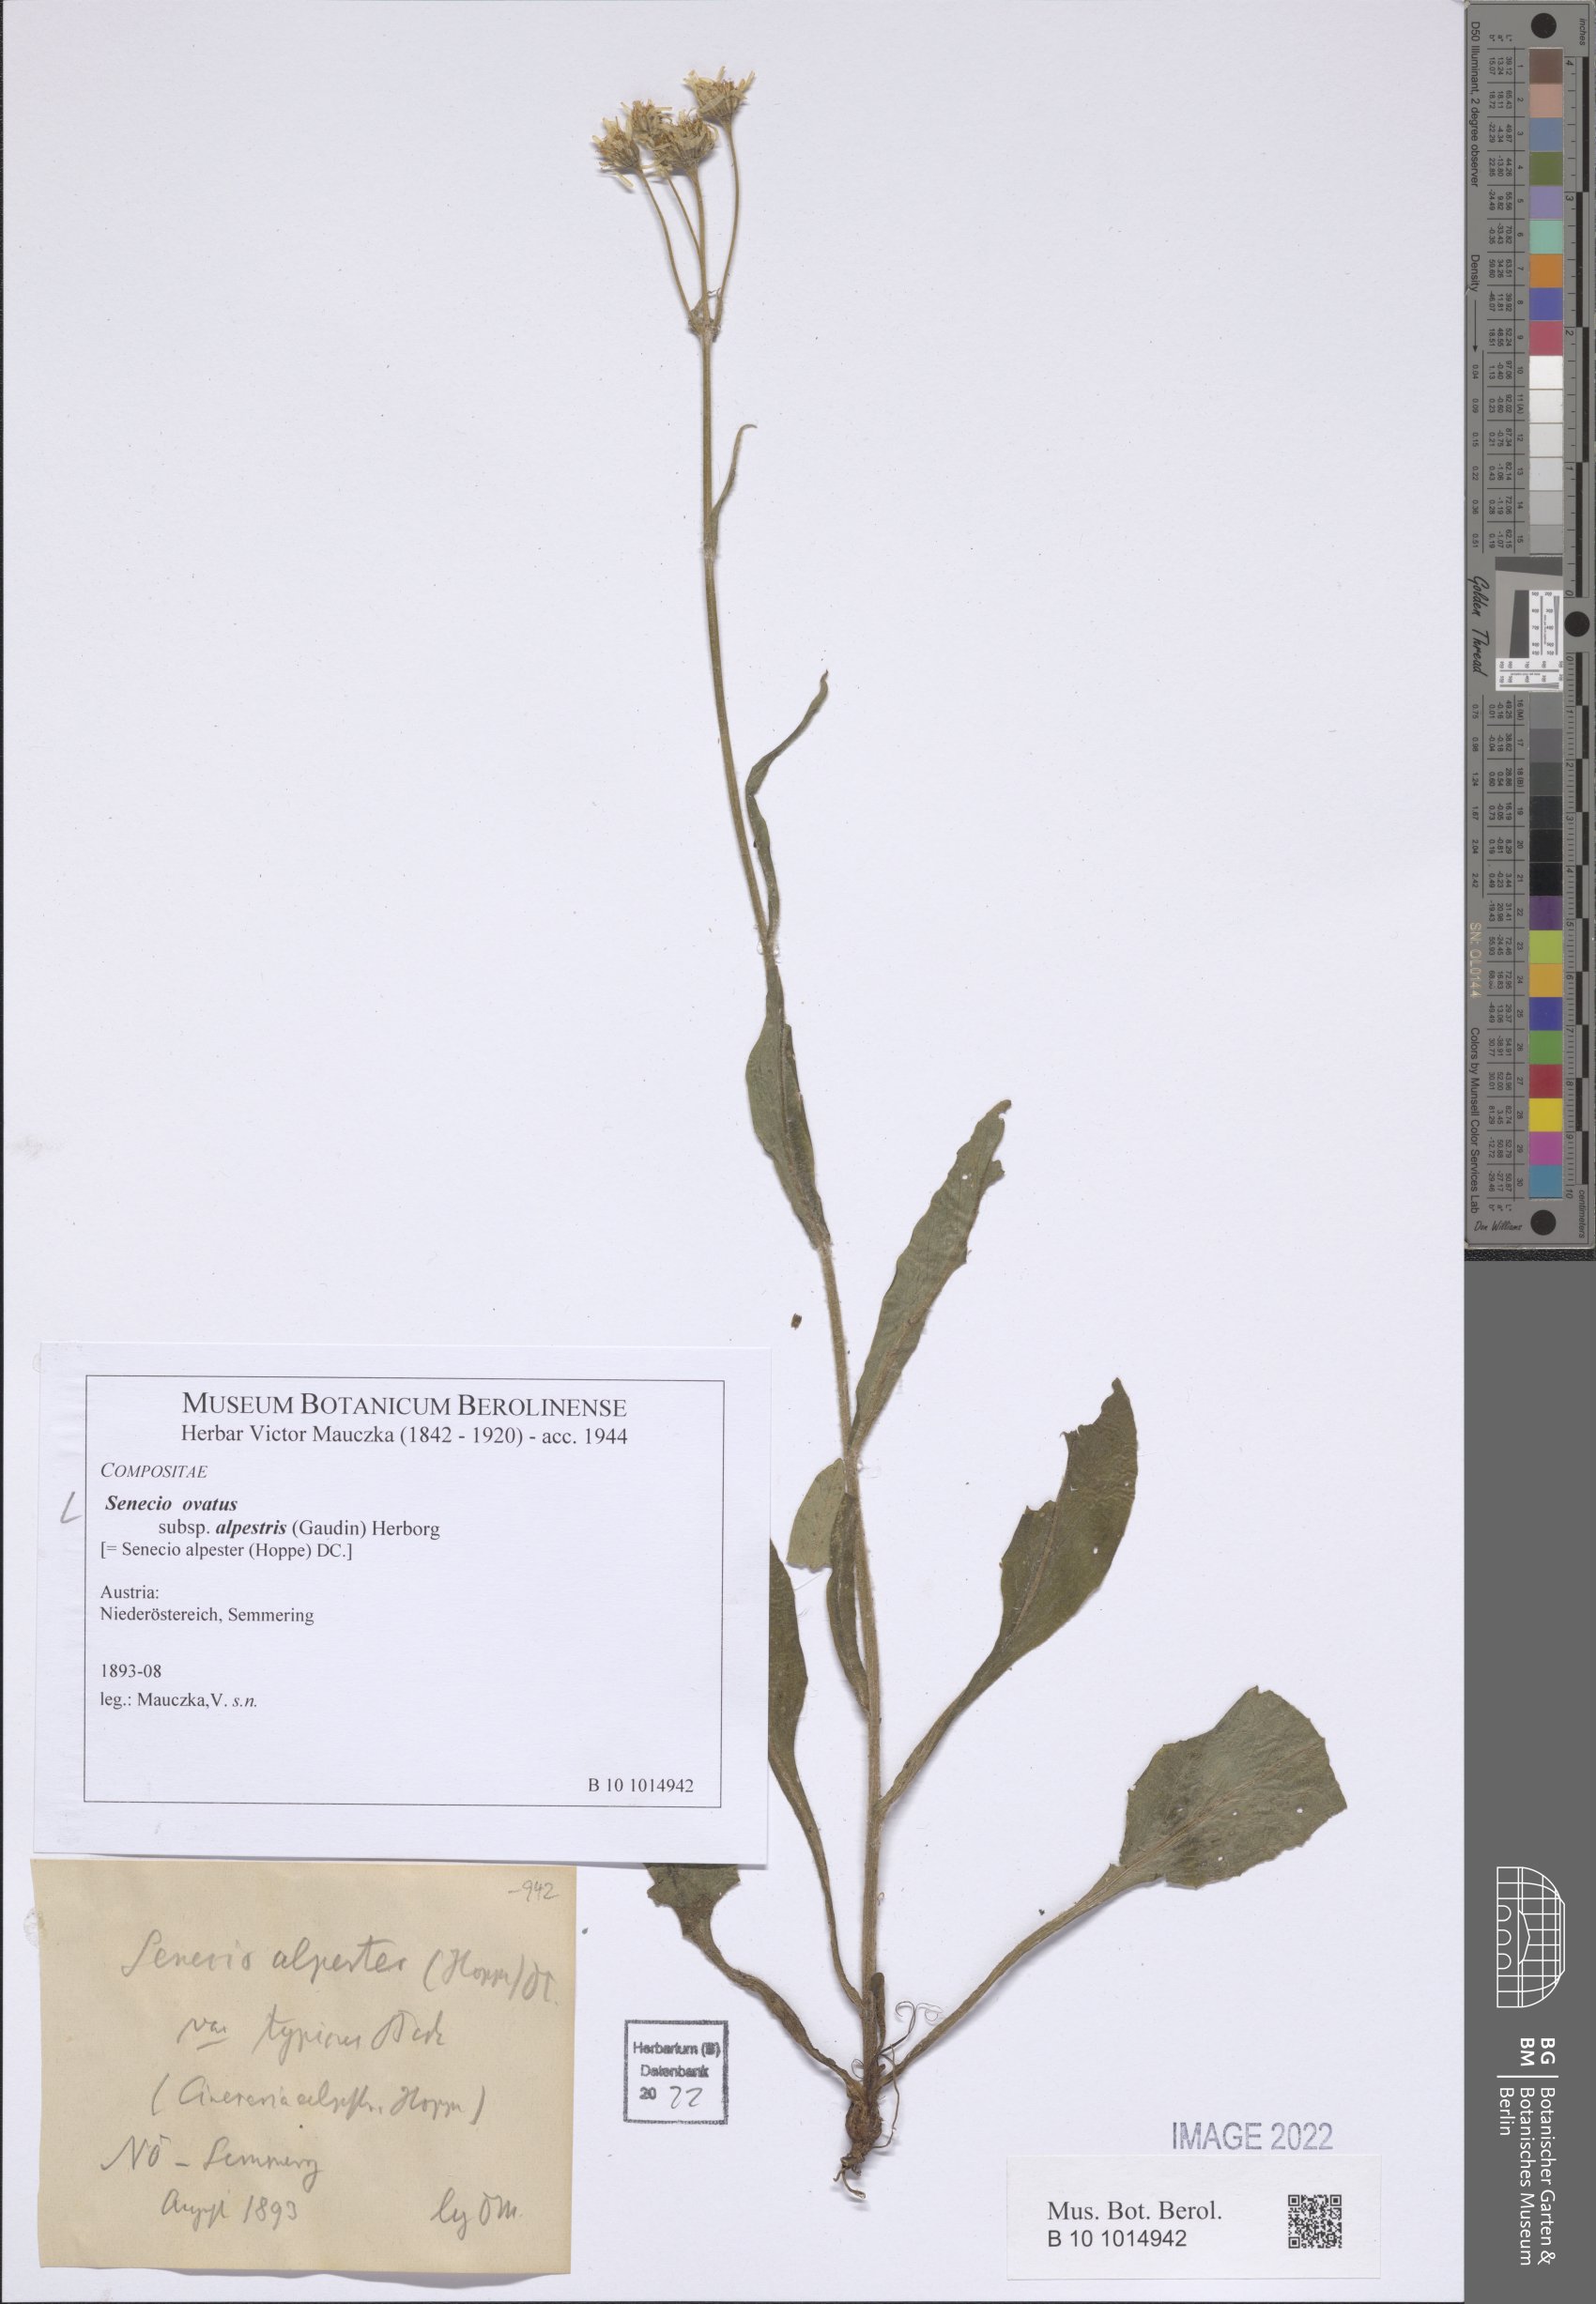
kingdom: Plantae
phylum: Tracheophyta
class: Magnoliopsida
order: Asterales
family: Asteraceae
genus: Senecio
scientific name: Senecio ovatus
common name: Wood ragwort
